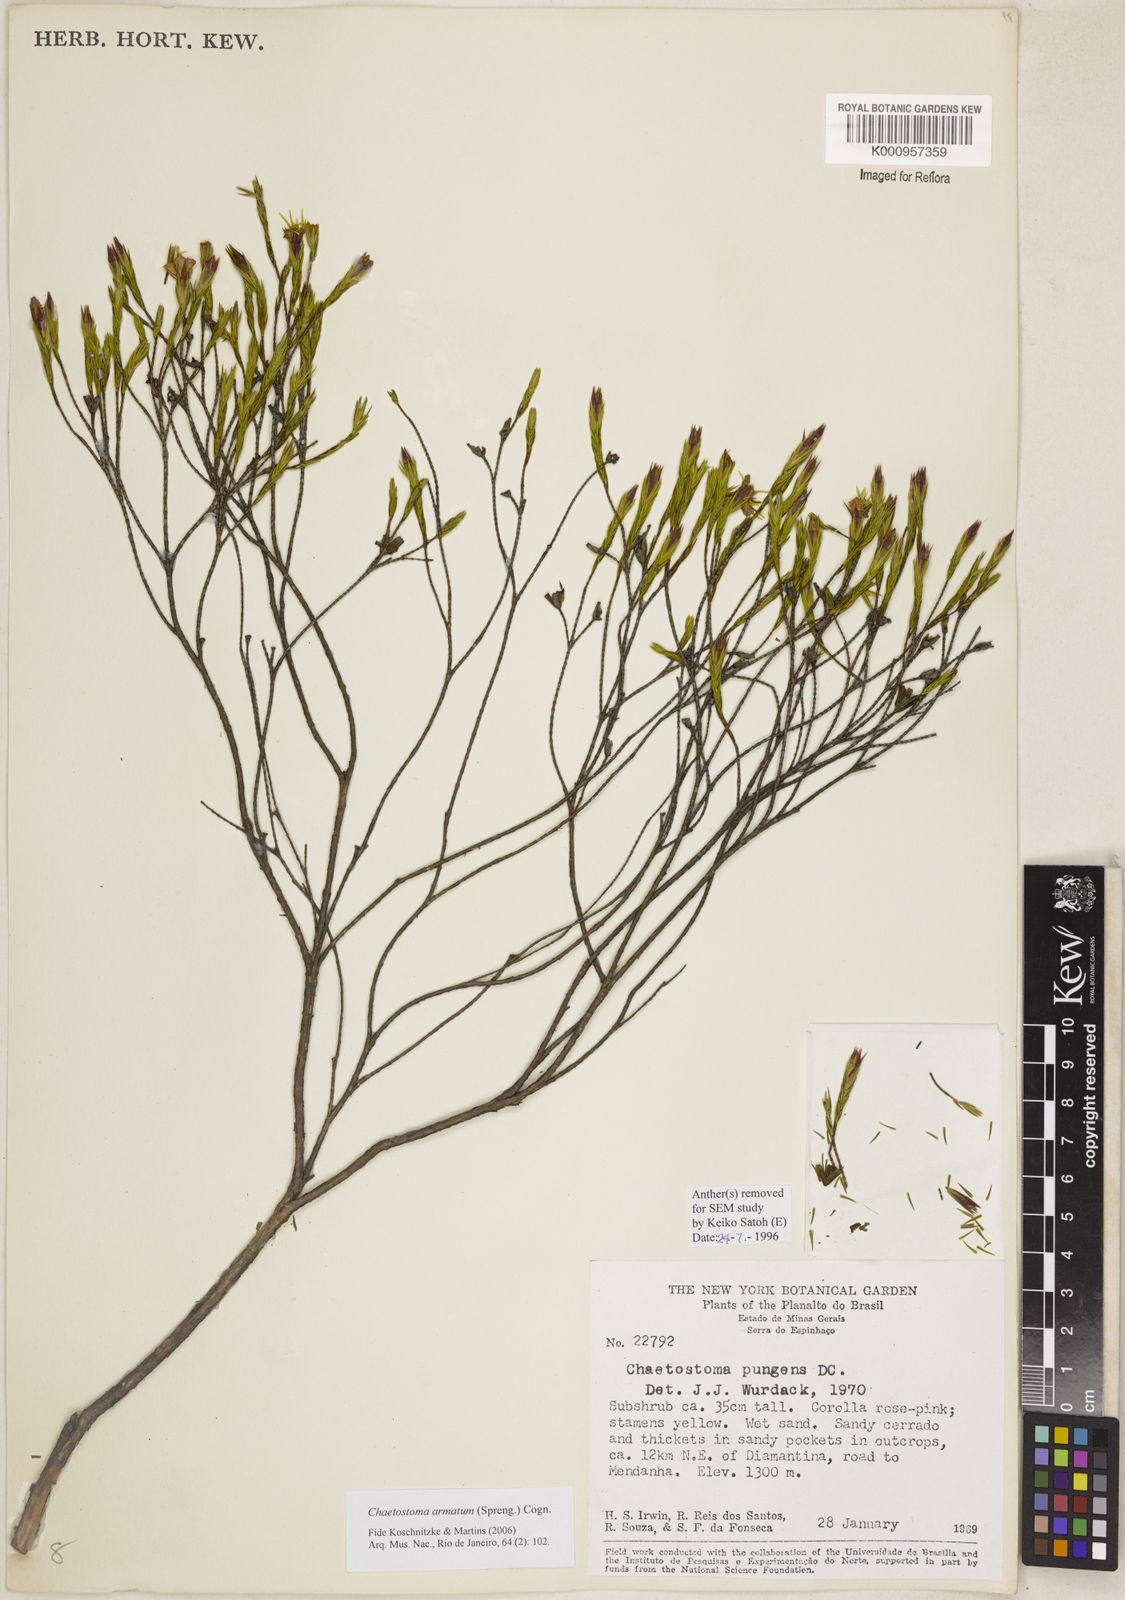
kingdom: Plantae
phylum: Tracheophyta
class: Magnoliopsida
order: Myrtales
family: Melastomataceae
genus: Microlicia
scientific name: Microlicia armata
